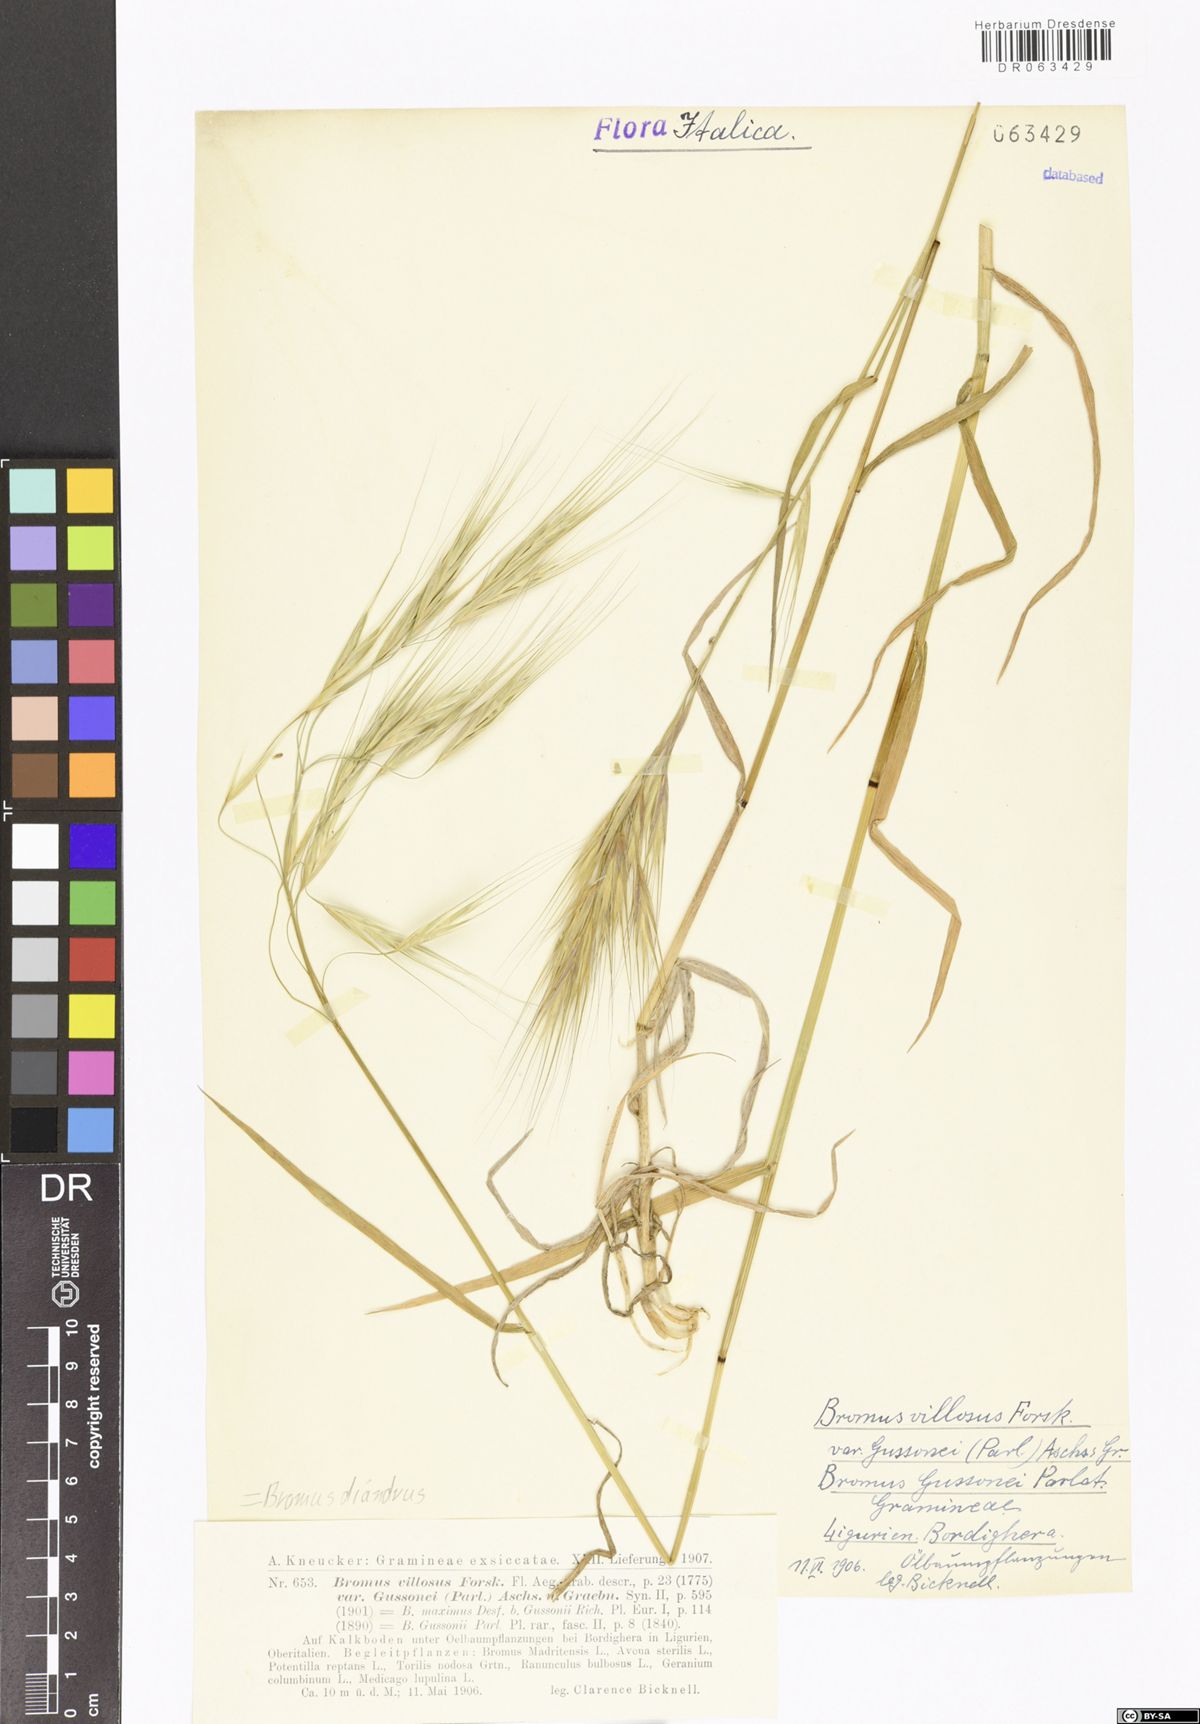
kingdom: Plantae
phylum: Tracheophyta
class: Liliopsida
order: Poales
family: Poaceae
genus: Bromus
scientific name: Bromus diandrus
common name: Ripgut brome
